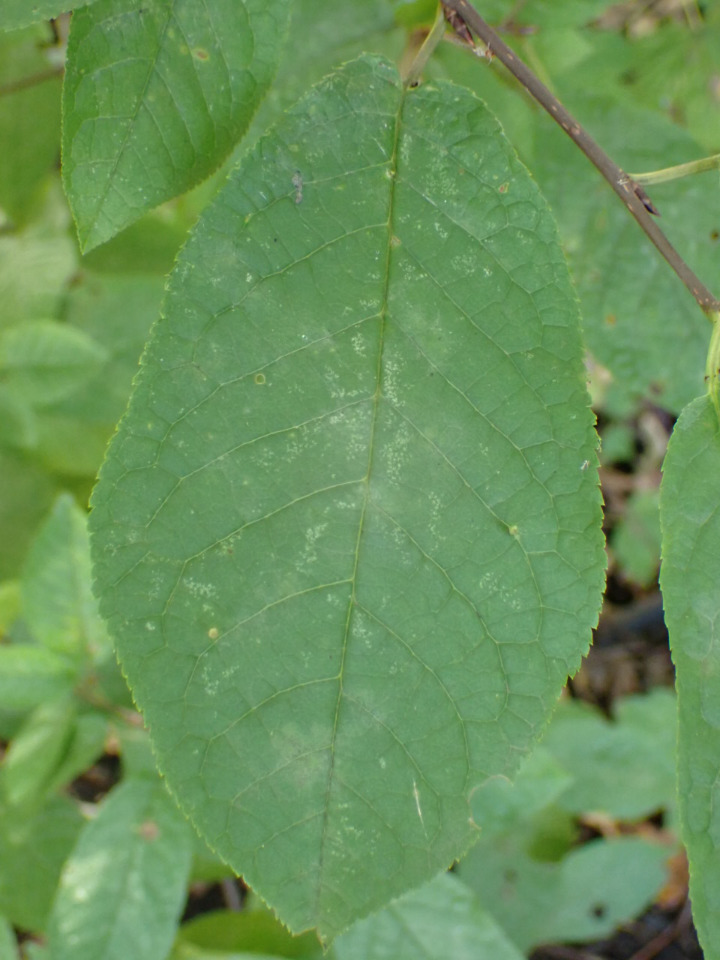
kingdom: Plantae
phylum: Tracheophyta
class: Magnoliopsida
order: Rosales
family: Rosaceae
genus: Prunus
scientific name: Prunus padus
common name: Almindelig hæg
